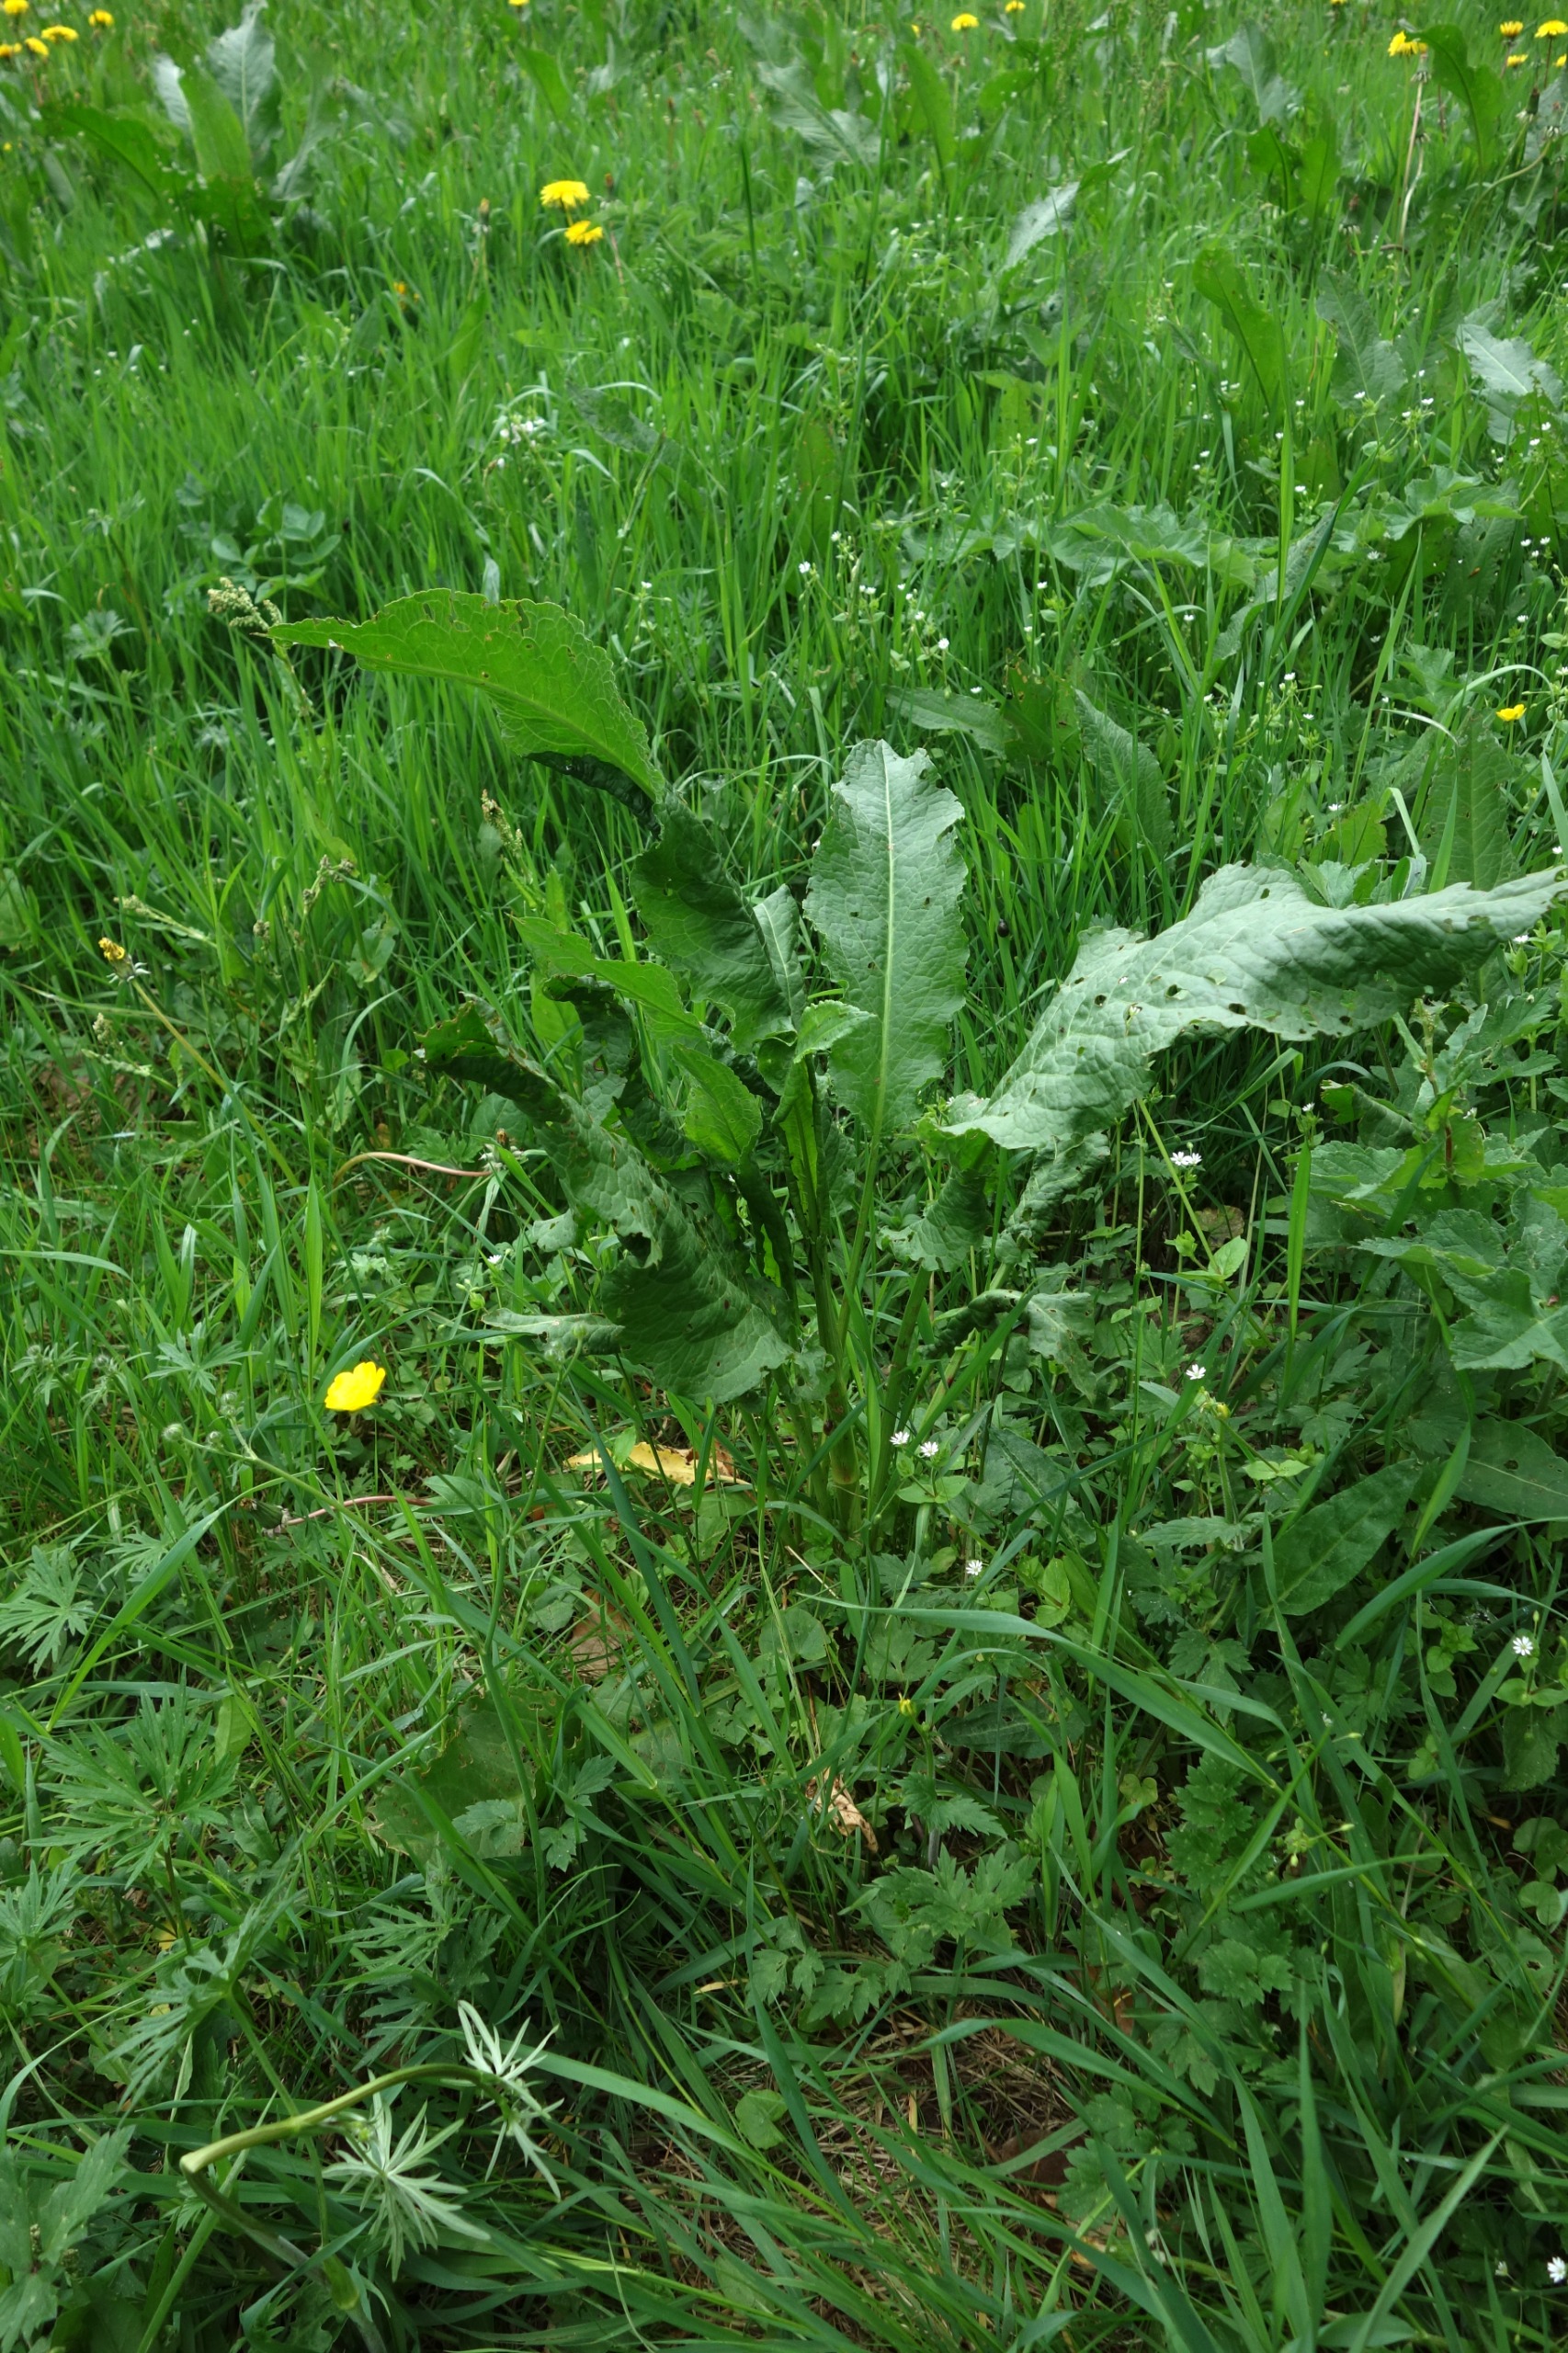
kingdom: Plantae
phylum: Tracheophyta
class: Magnoliopsida
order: Caryophyllales
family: Polygonaceae
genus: Rumex
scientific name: Rumex longifolius
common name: By-skræppe
